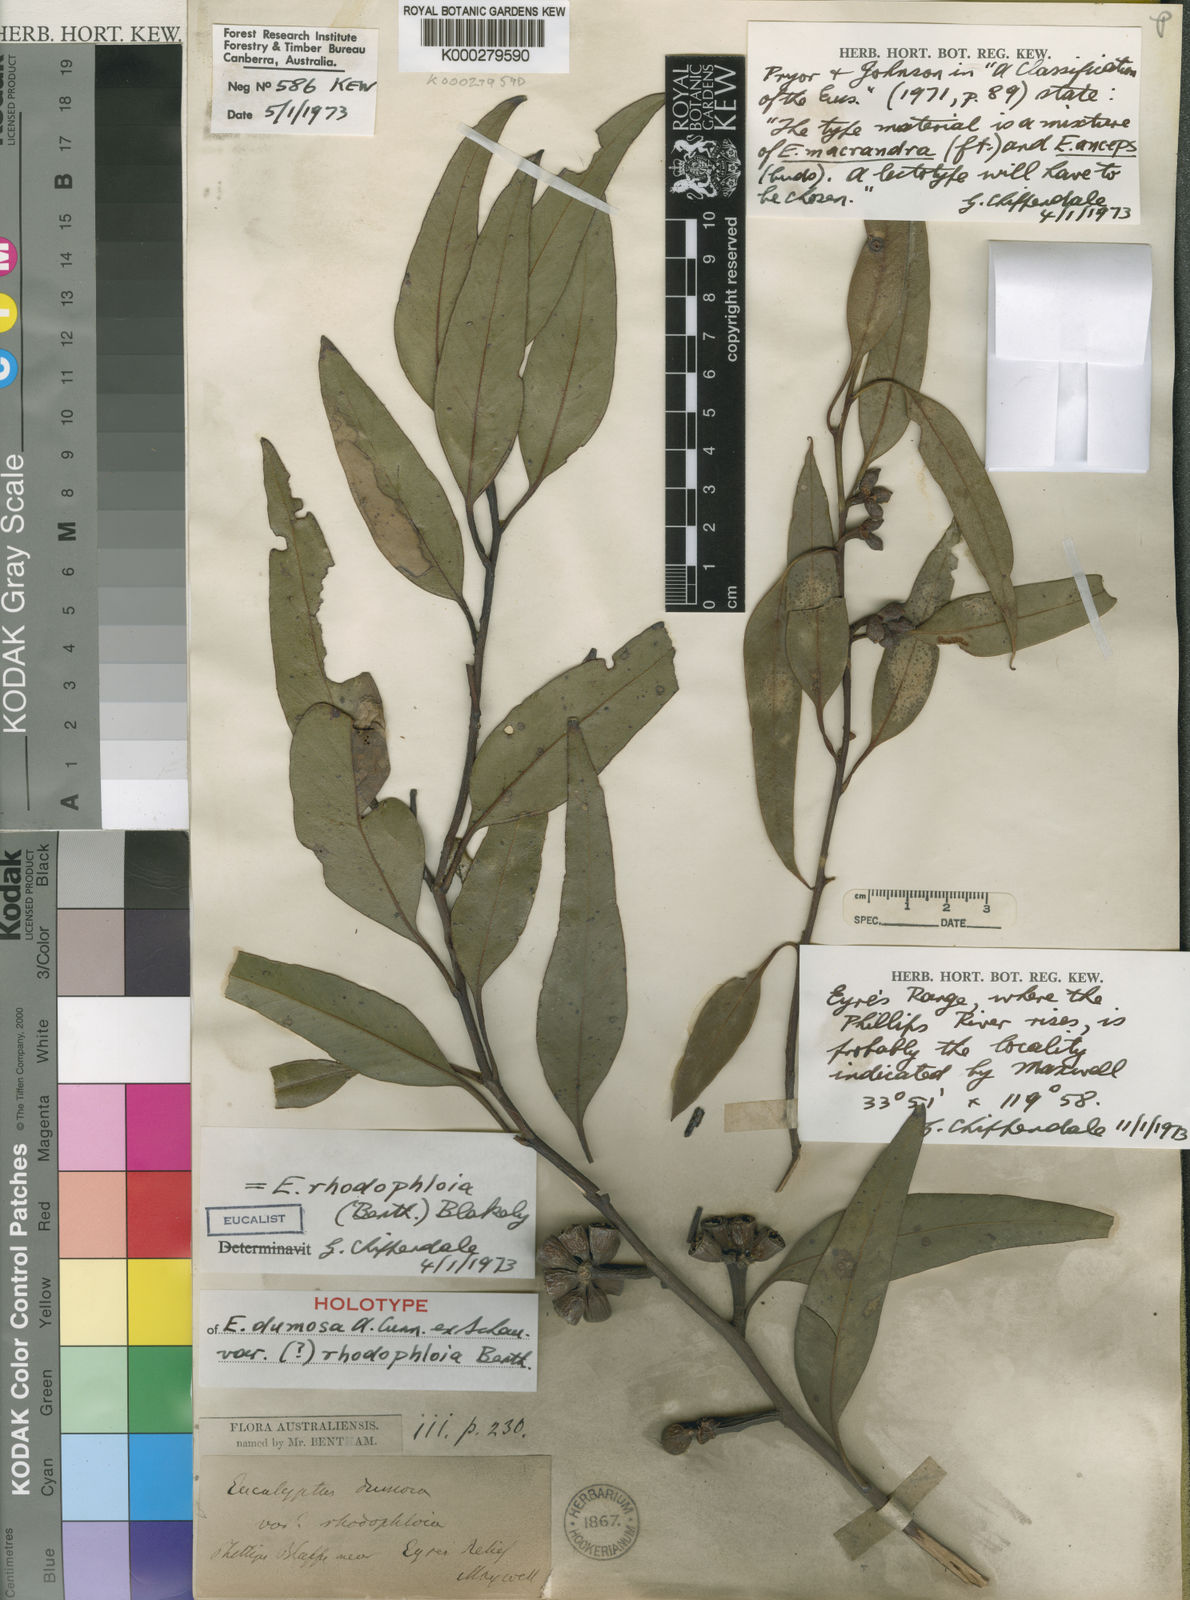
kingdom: Plantae
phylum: Tracheophyta
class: Magnoliopsida
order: Myrtales
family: Myrtaceae
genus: Eucalyptus
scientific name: Eucalyptus dumosa
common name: Dumosa mallee
